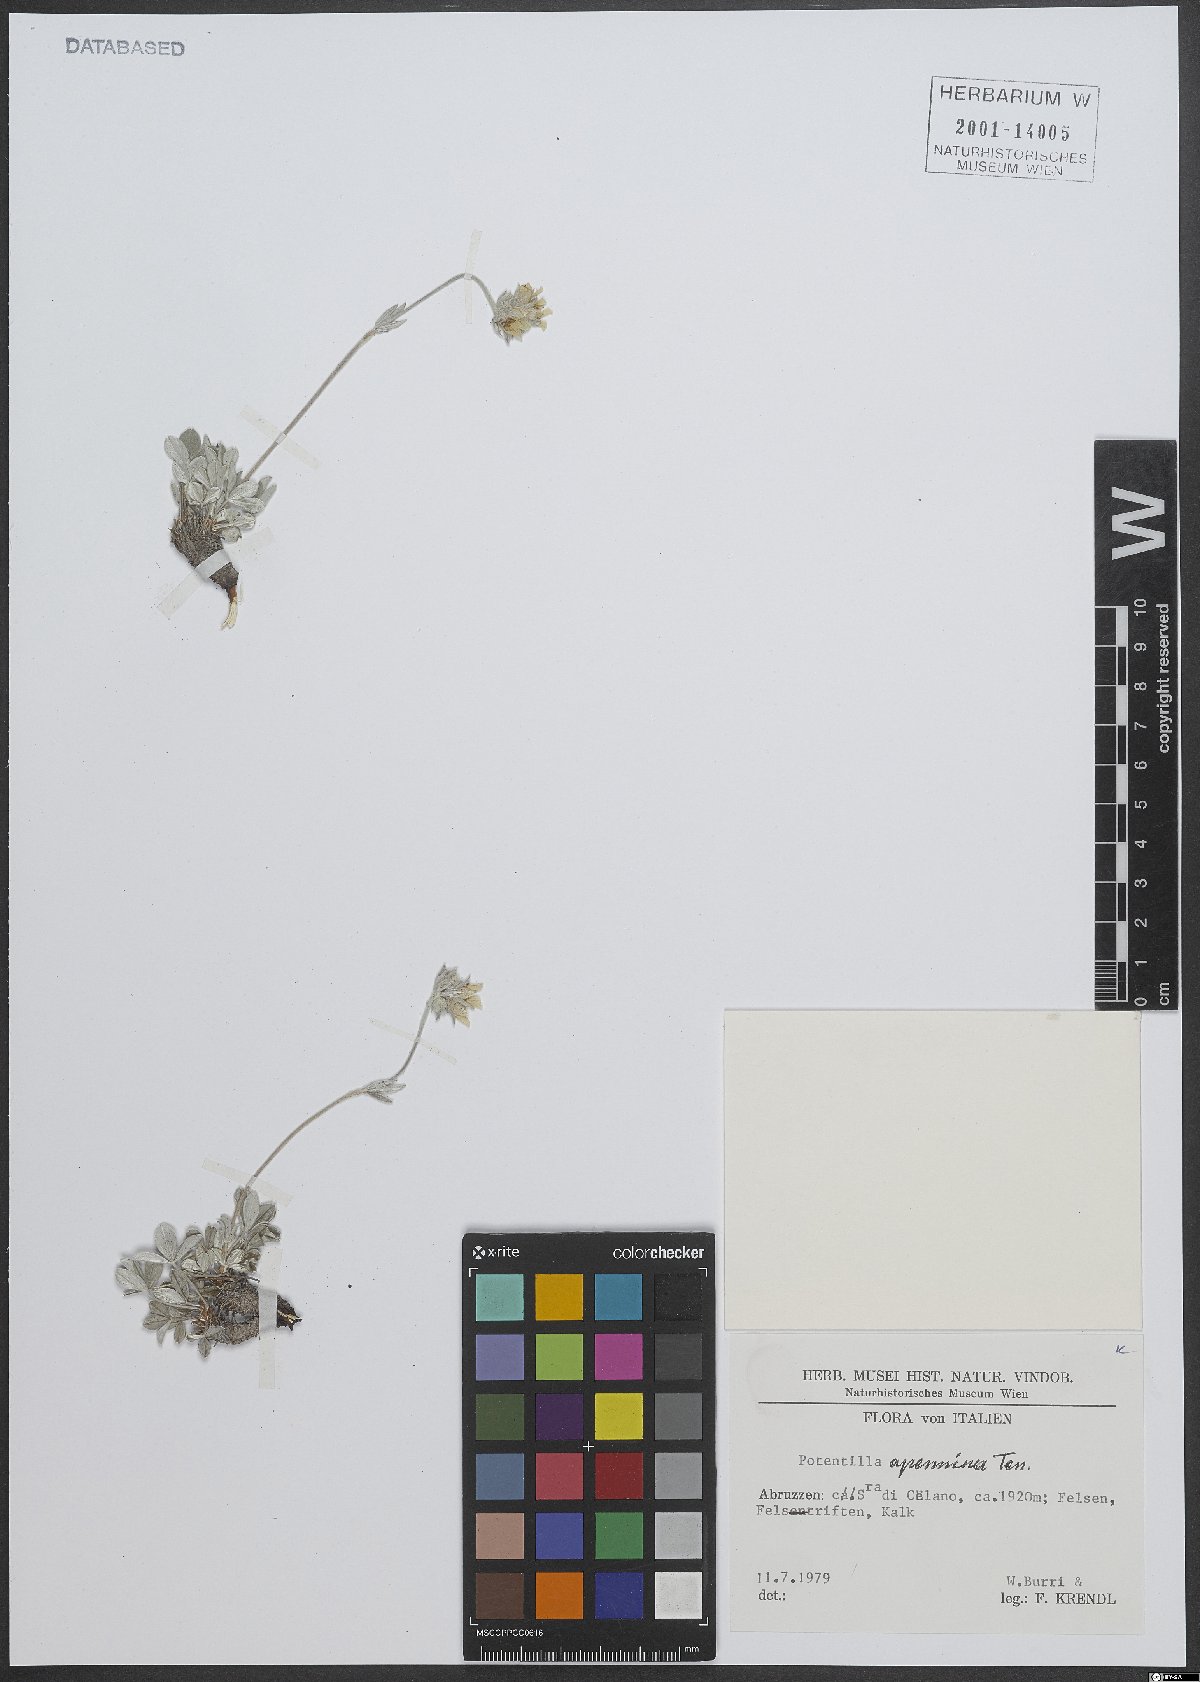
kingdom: Plantae
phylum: Tracheophyta
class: Magnoliopsida
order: Rosales
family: Rosaceae
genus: Potentilla
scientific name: Potentilla apennina
